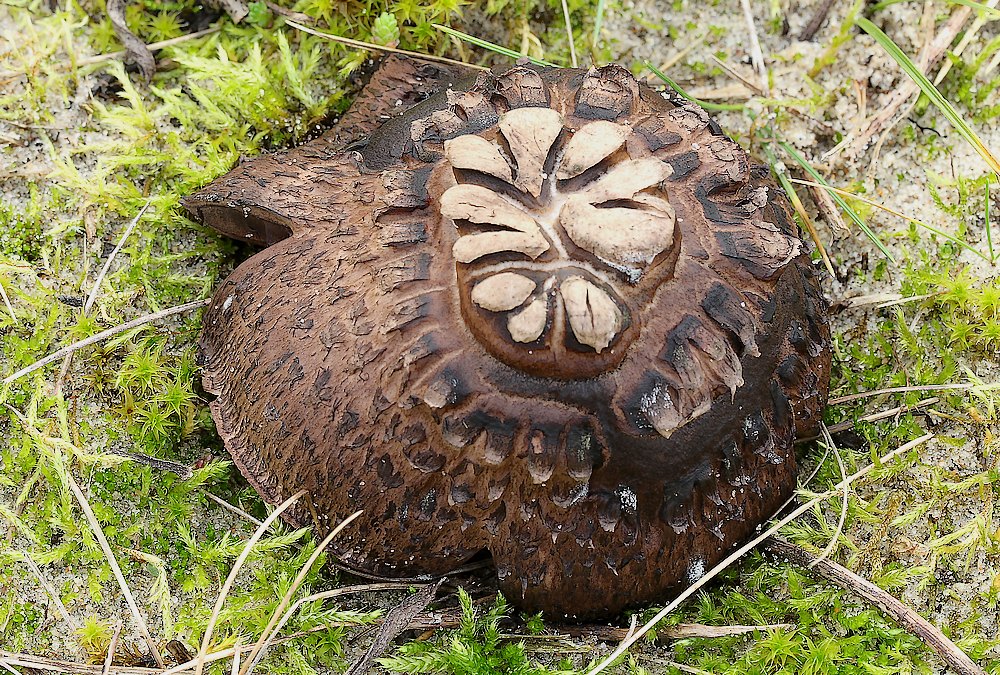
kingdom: Fungi
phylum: Basidiomycota
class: Agaricomycetes
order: Agaricales
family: Agaricaceae
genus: Agaricus
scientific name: Agaricus
